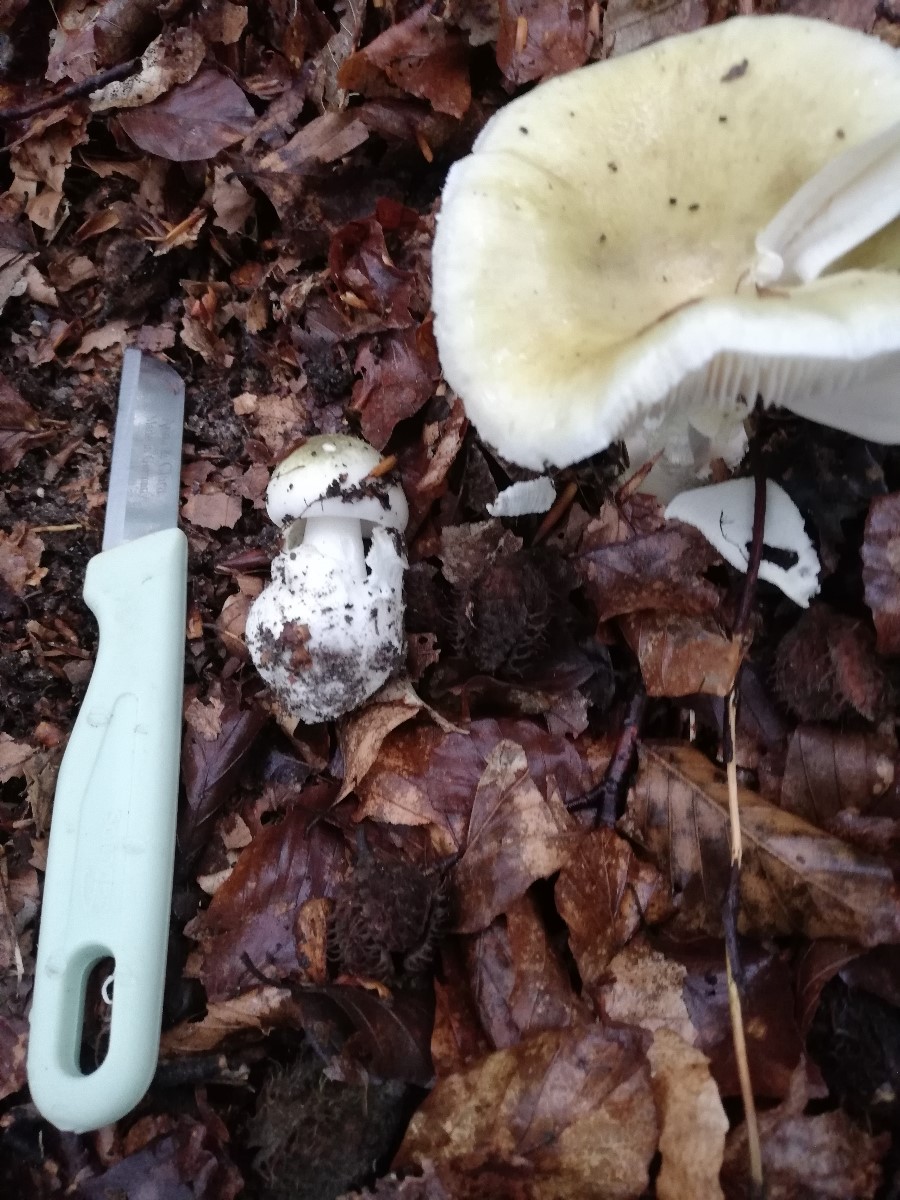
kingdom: Fungi
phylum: Basidiomycota
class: Agaricomycetes
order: Agaricales
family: Amanitaceae
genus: Amanita
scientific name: Amanita phalloides
